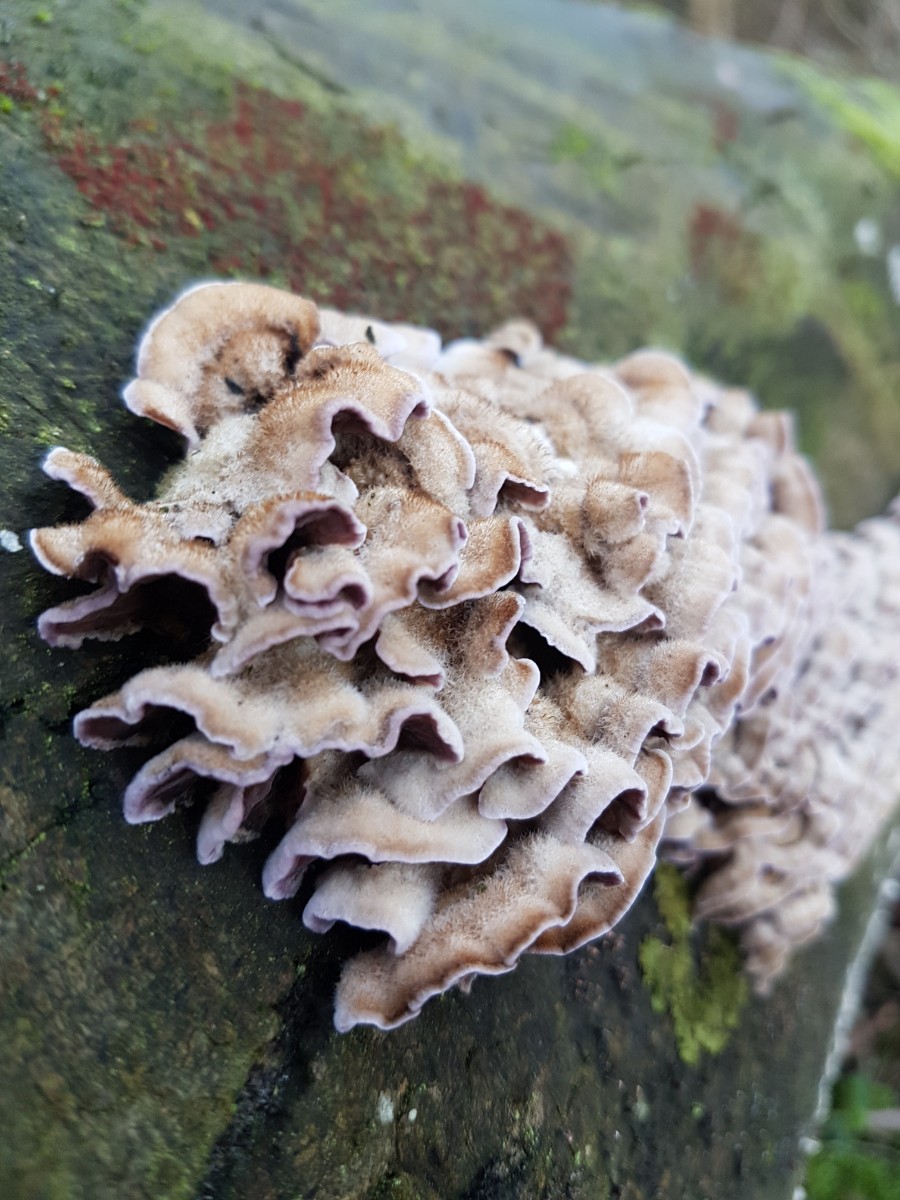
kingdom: Fungi
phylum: Basidiomycota
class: Agaricomycetes
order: Agaricales
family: Cyphellaceae
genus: Chondrostereum
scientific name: Chondrostereum purpureum
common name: purpurlædersvamp
